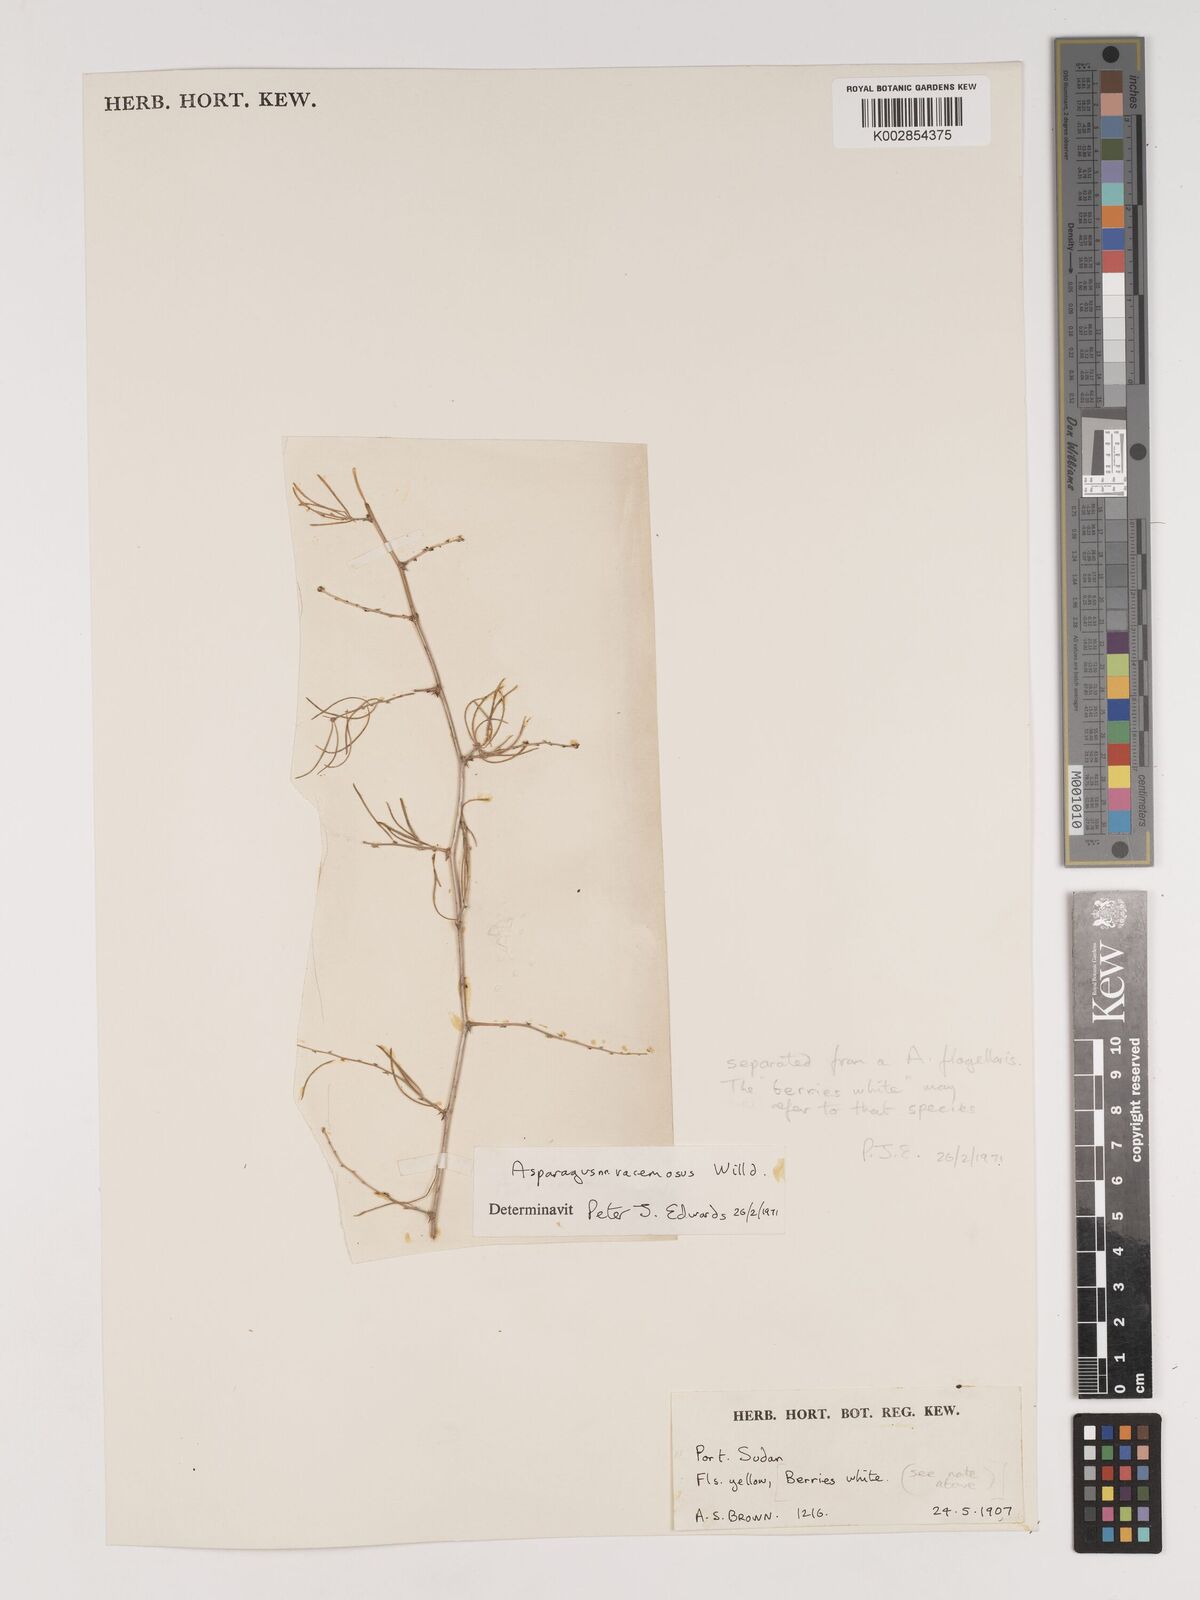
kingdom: Plantae
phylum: Tracheophyta
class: Liliopsida
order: Asparagales
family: Asparagaceae
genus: Asparagus
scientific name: Asparagus racemosus
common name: Asparagus-fern
